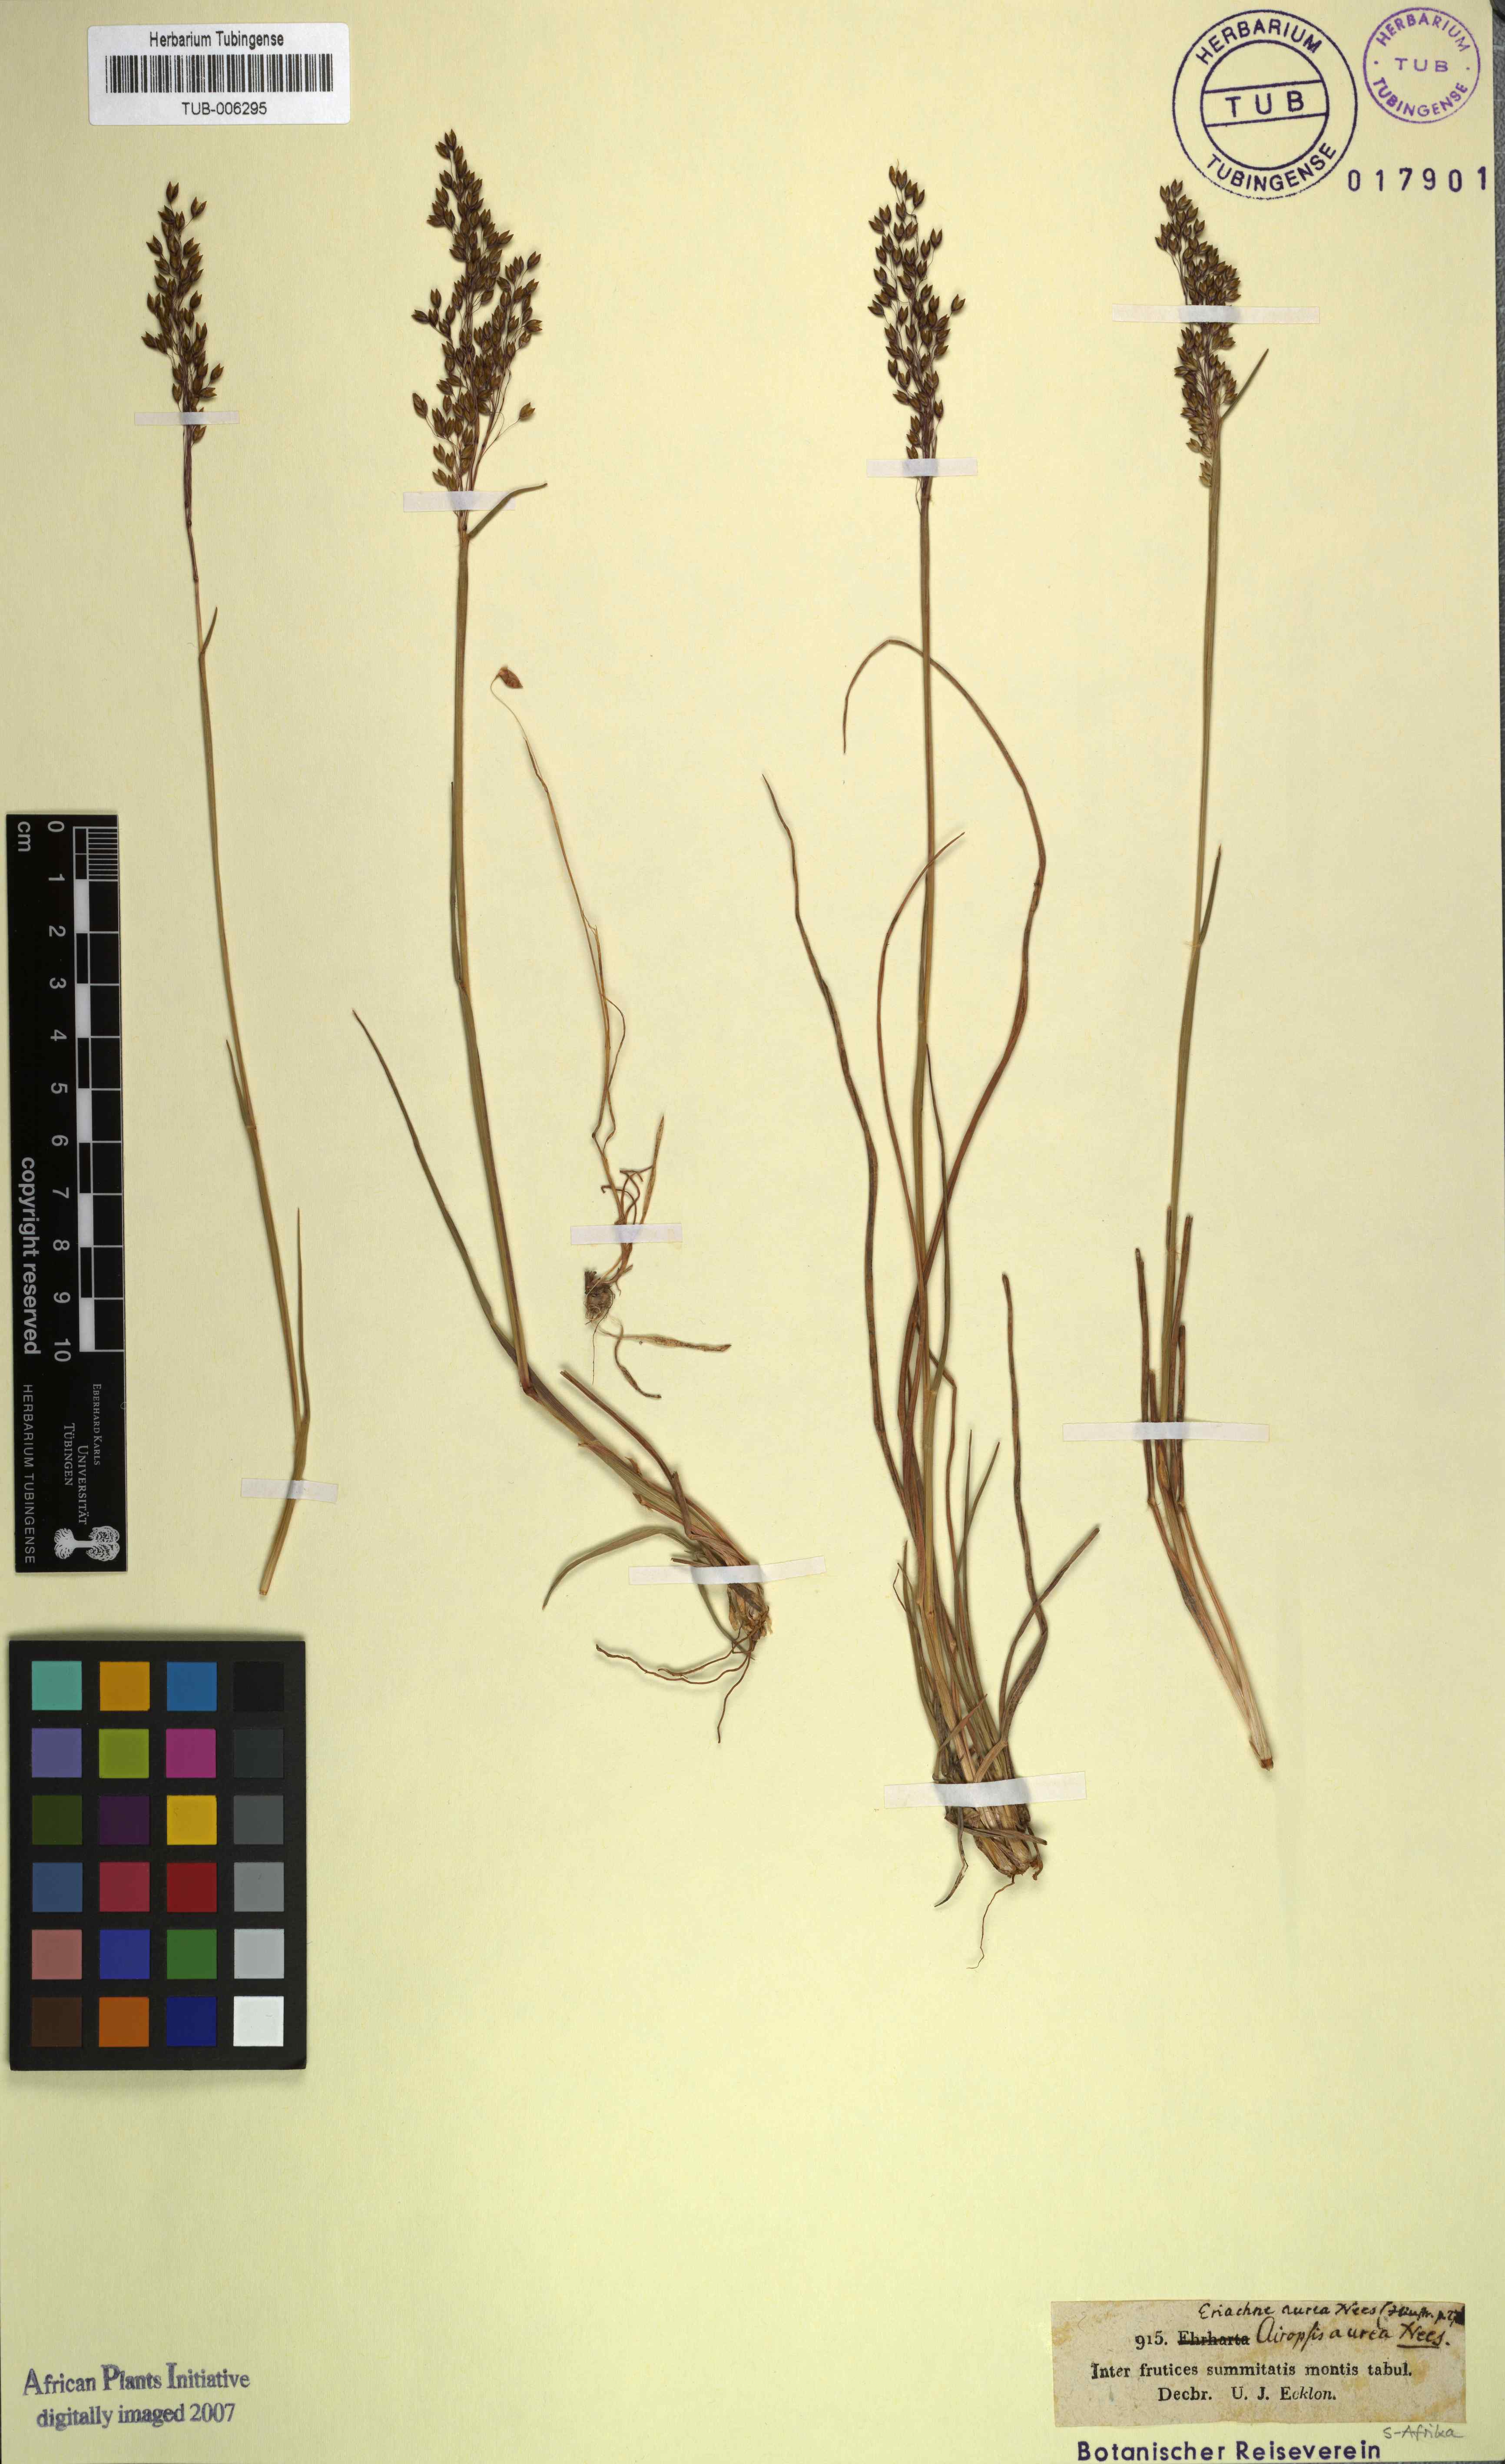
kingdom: Plantae
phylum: Tracheophyta
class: Liliopsida
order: Poales
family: Poaceae
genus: Pentameris
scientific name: Pentameris aurea
